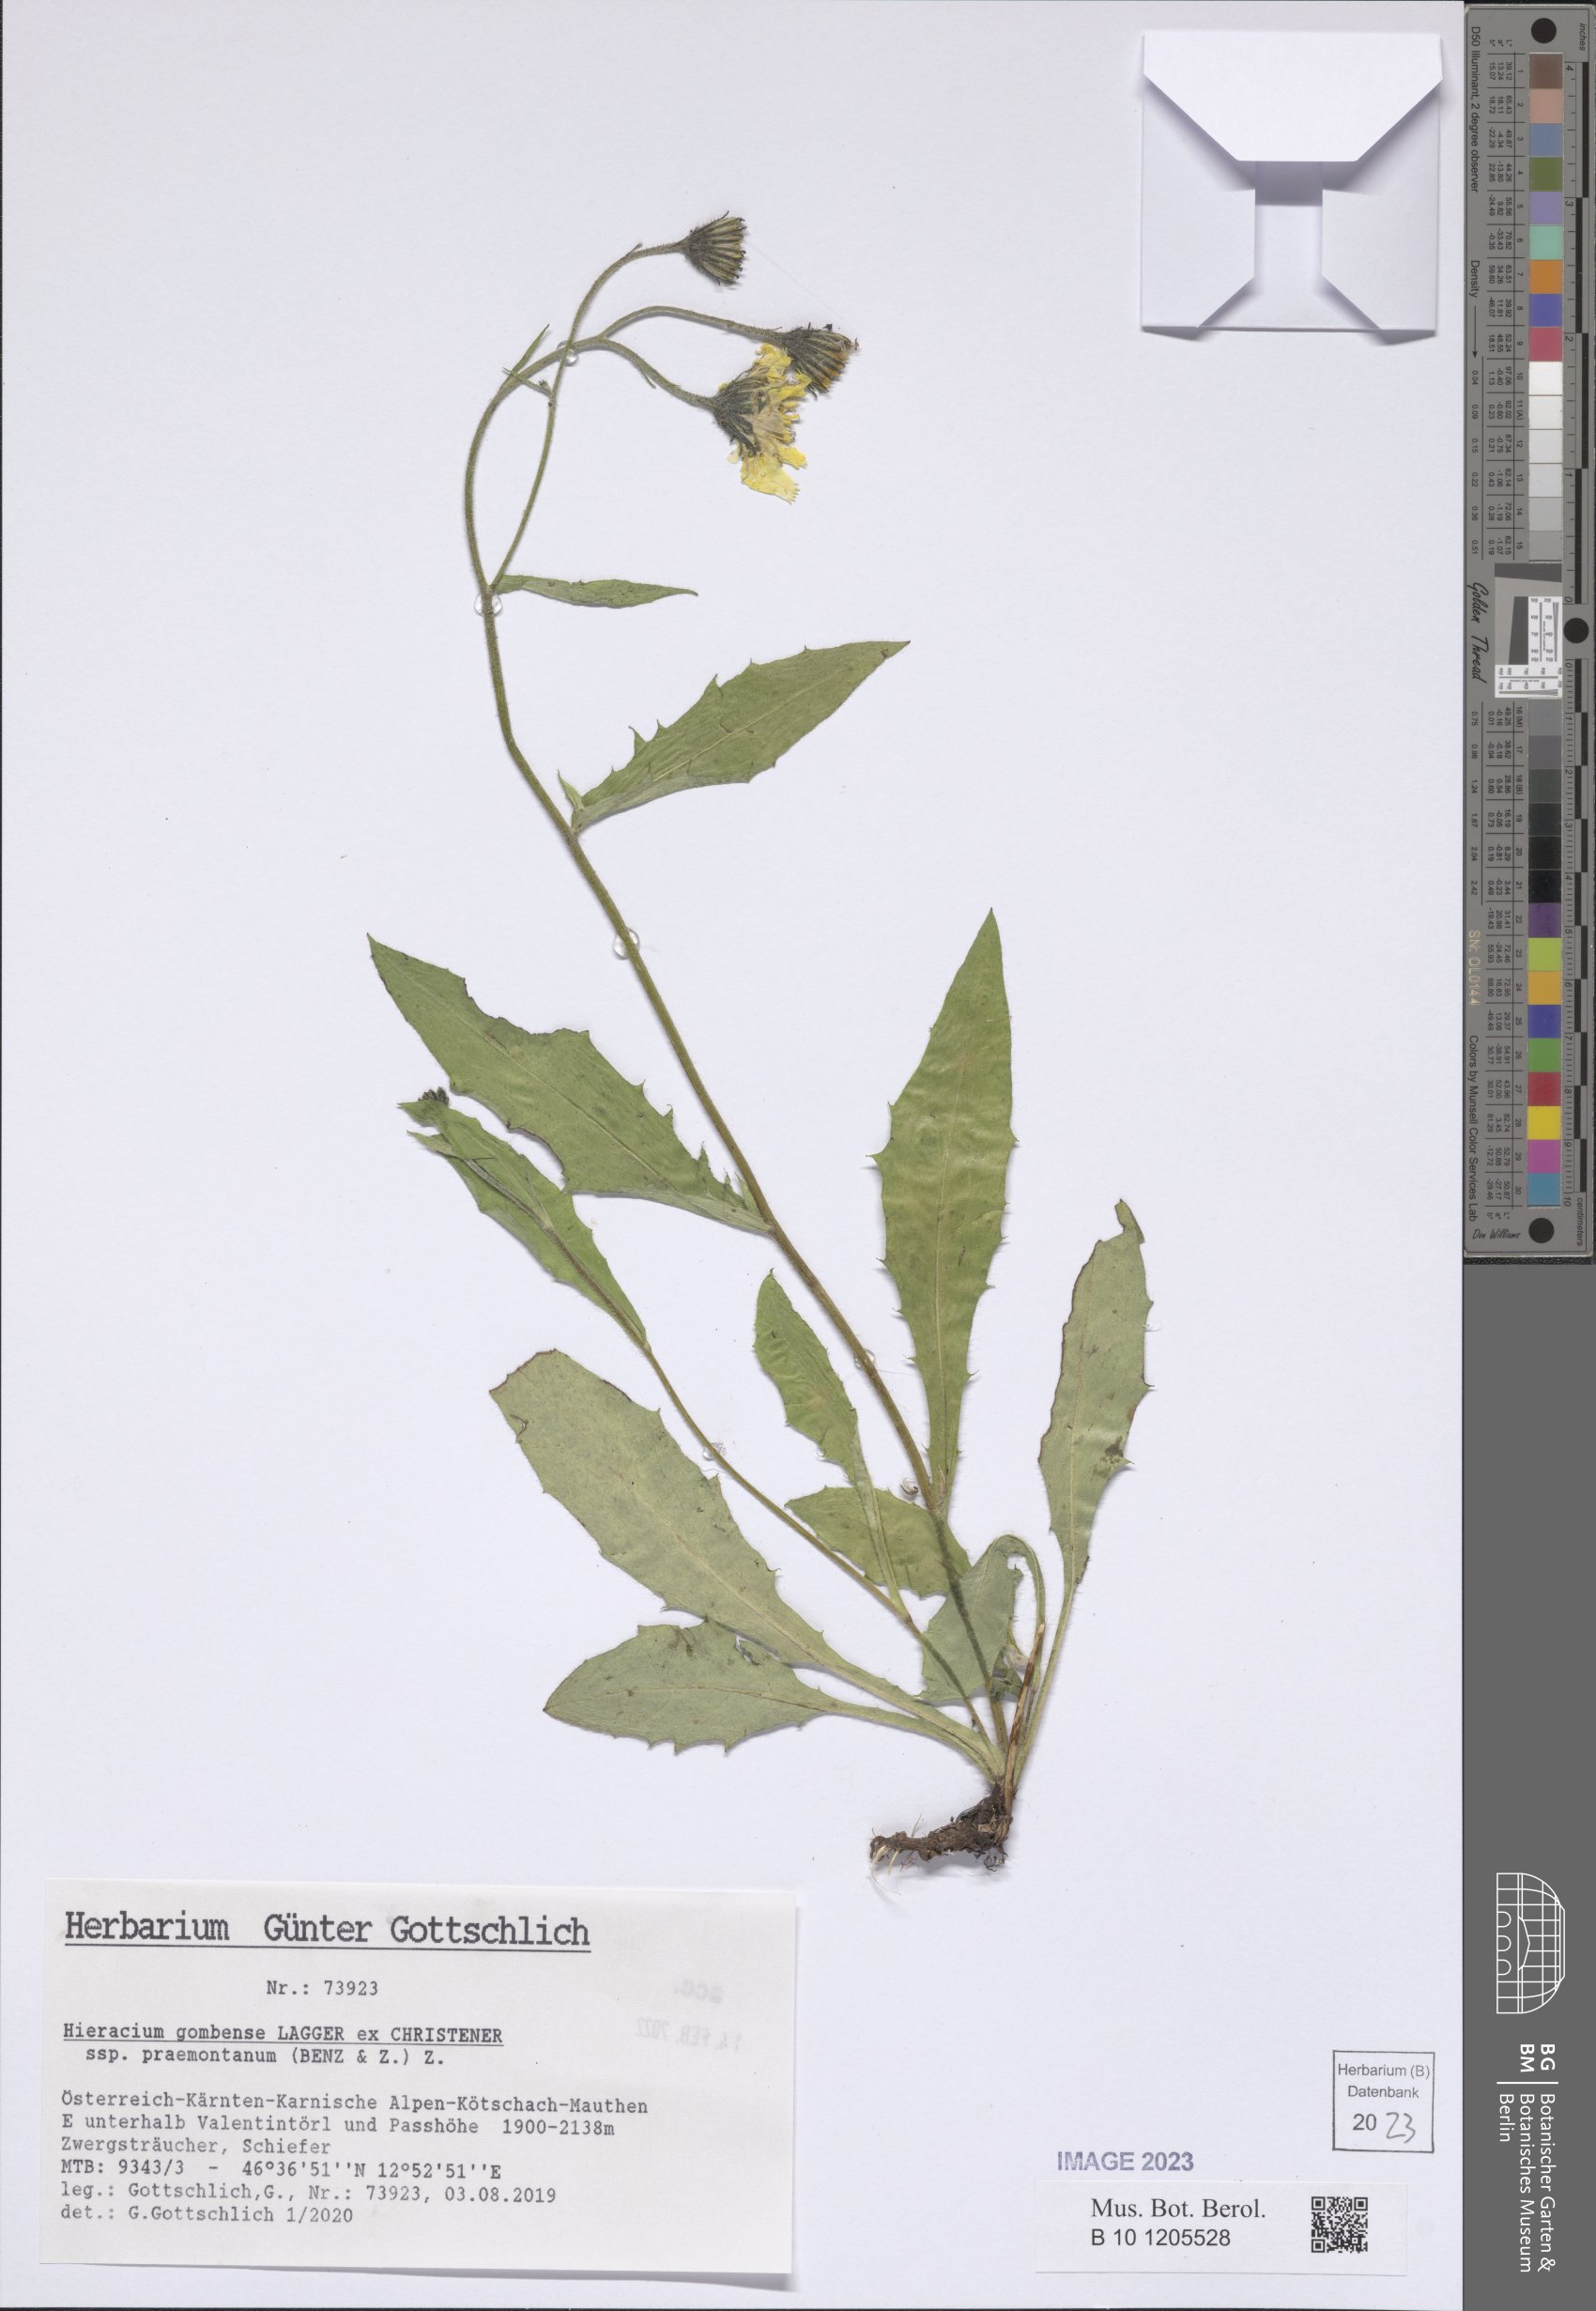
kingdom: Plantae
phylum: Tracheophyta
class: Magnoliopsida
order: Asterales
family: Asteraceae
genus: Hieracium
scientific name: Hieracium gombense
